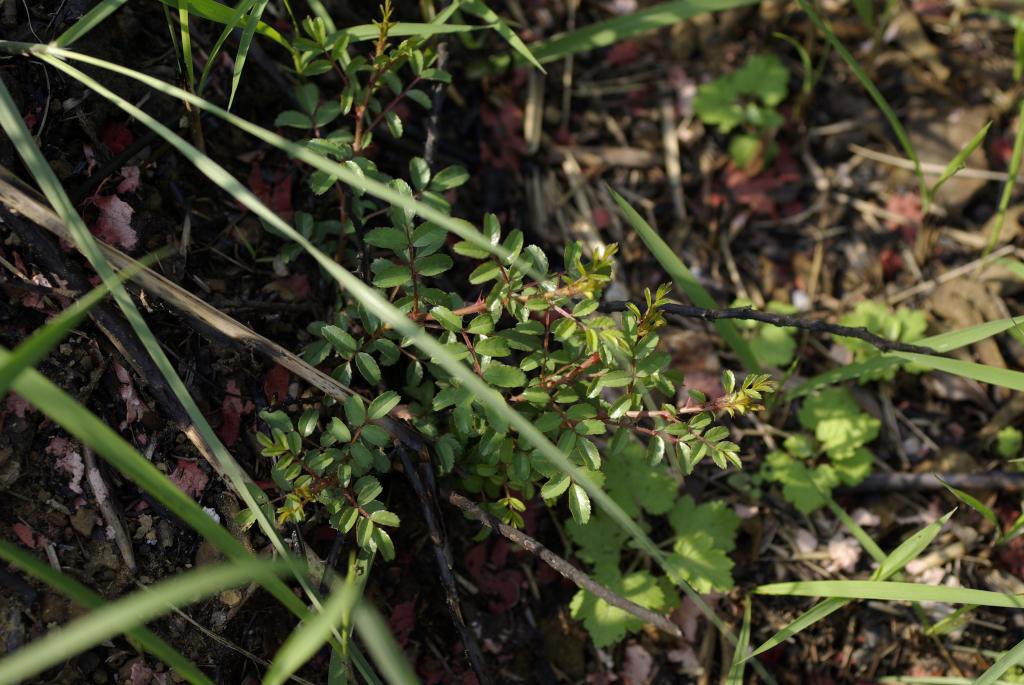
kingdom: Plantae
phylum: Tracheophyta
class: Magnoliopsida
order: Rosales
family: Rosaceae
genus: Rosa
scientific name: Rosa bracteata
